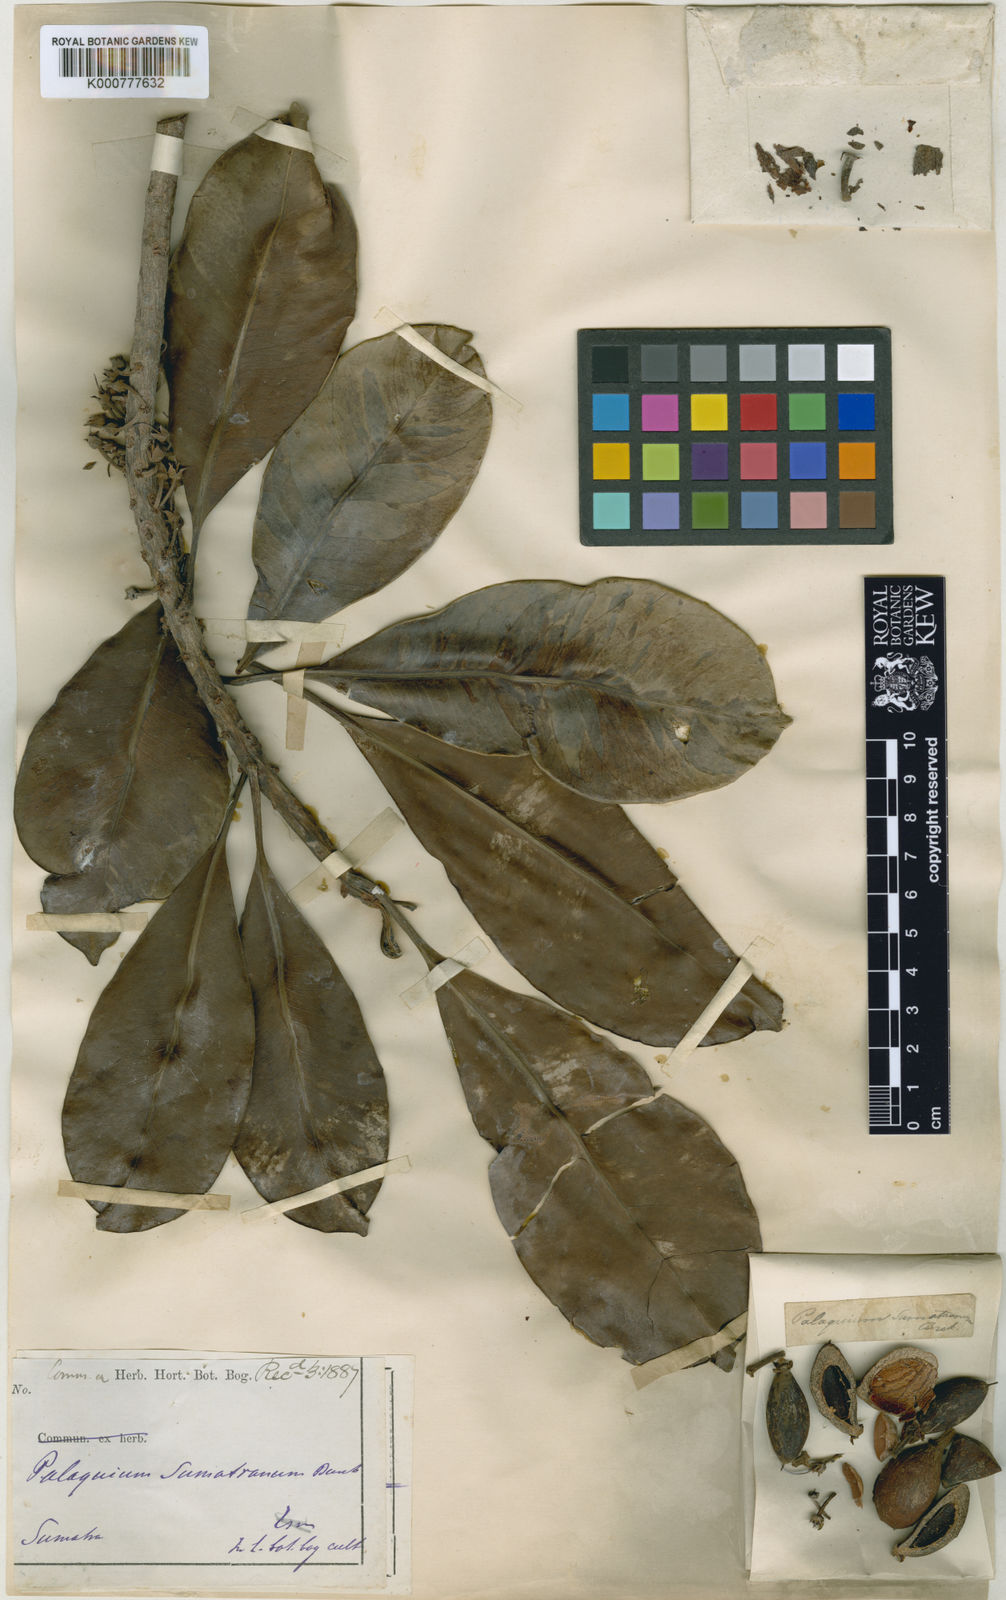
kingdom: Plantae
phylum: Tracheophyta
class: Magnoliopsida
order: Ericales
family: Sapotaceae
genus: Palaquium
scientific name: Palaquium sumatranum
